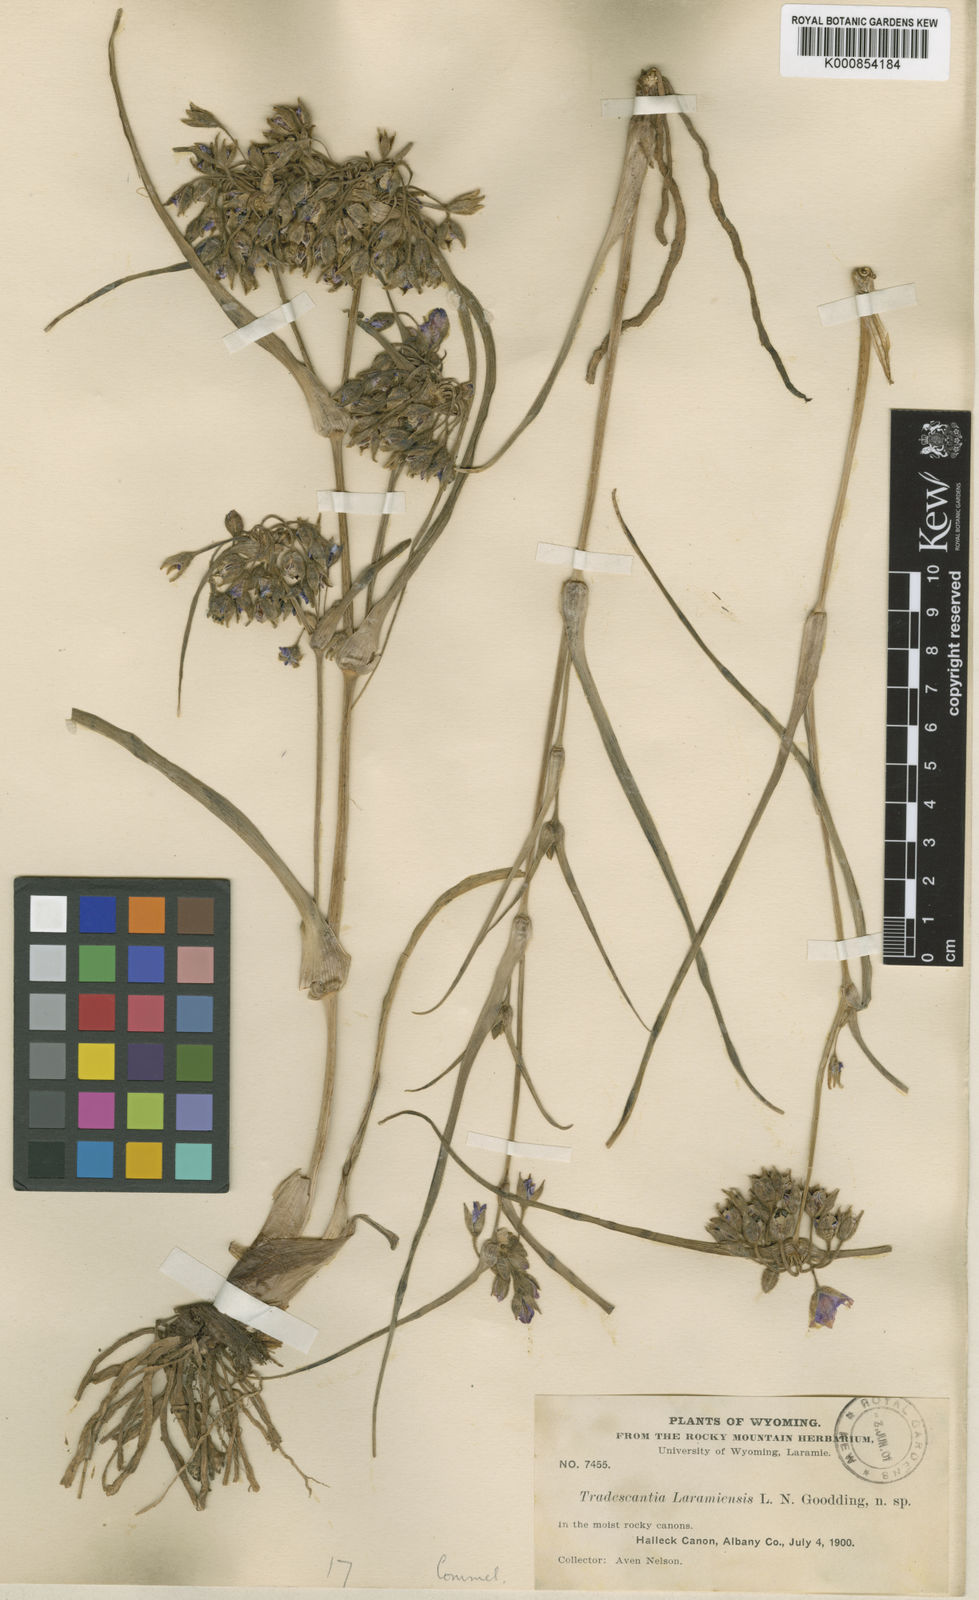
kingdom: Plantae
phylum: Tracheophyta
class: Liliopsida
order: Commelinales
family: Commelinaceae
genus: Tradescantia
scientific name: Tradescantia occidentalis
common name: Prairie spiderwort
